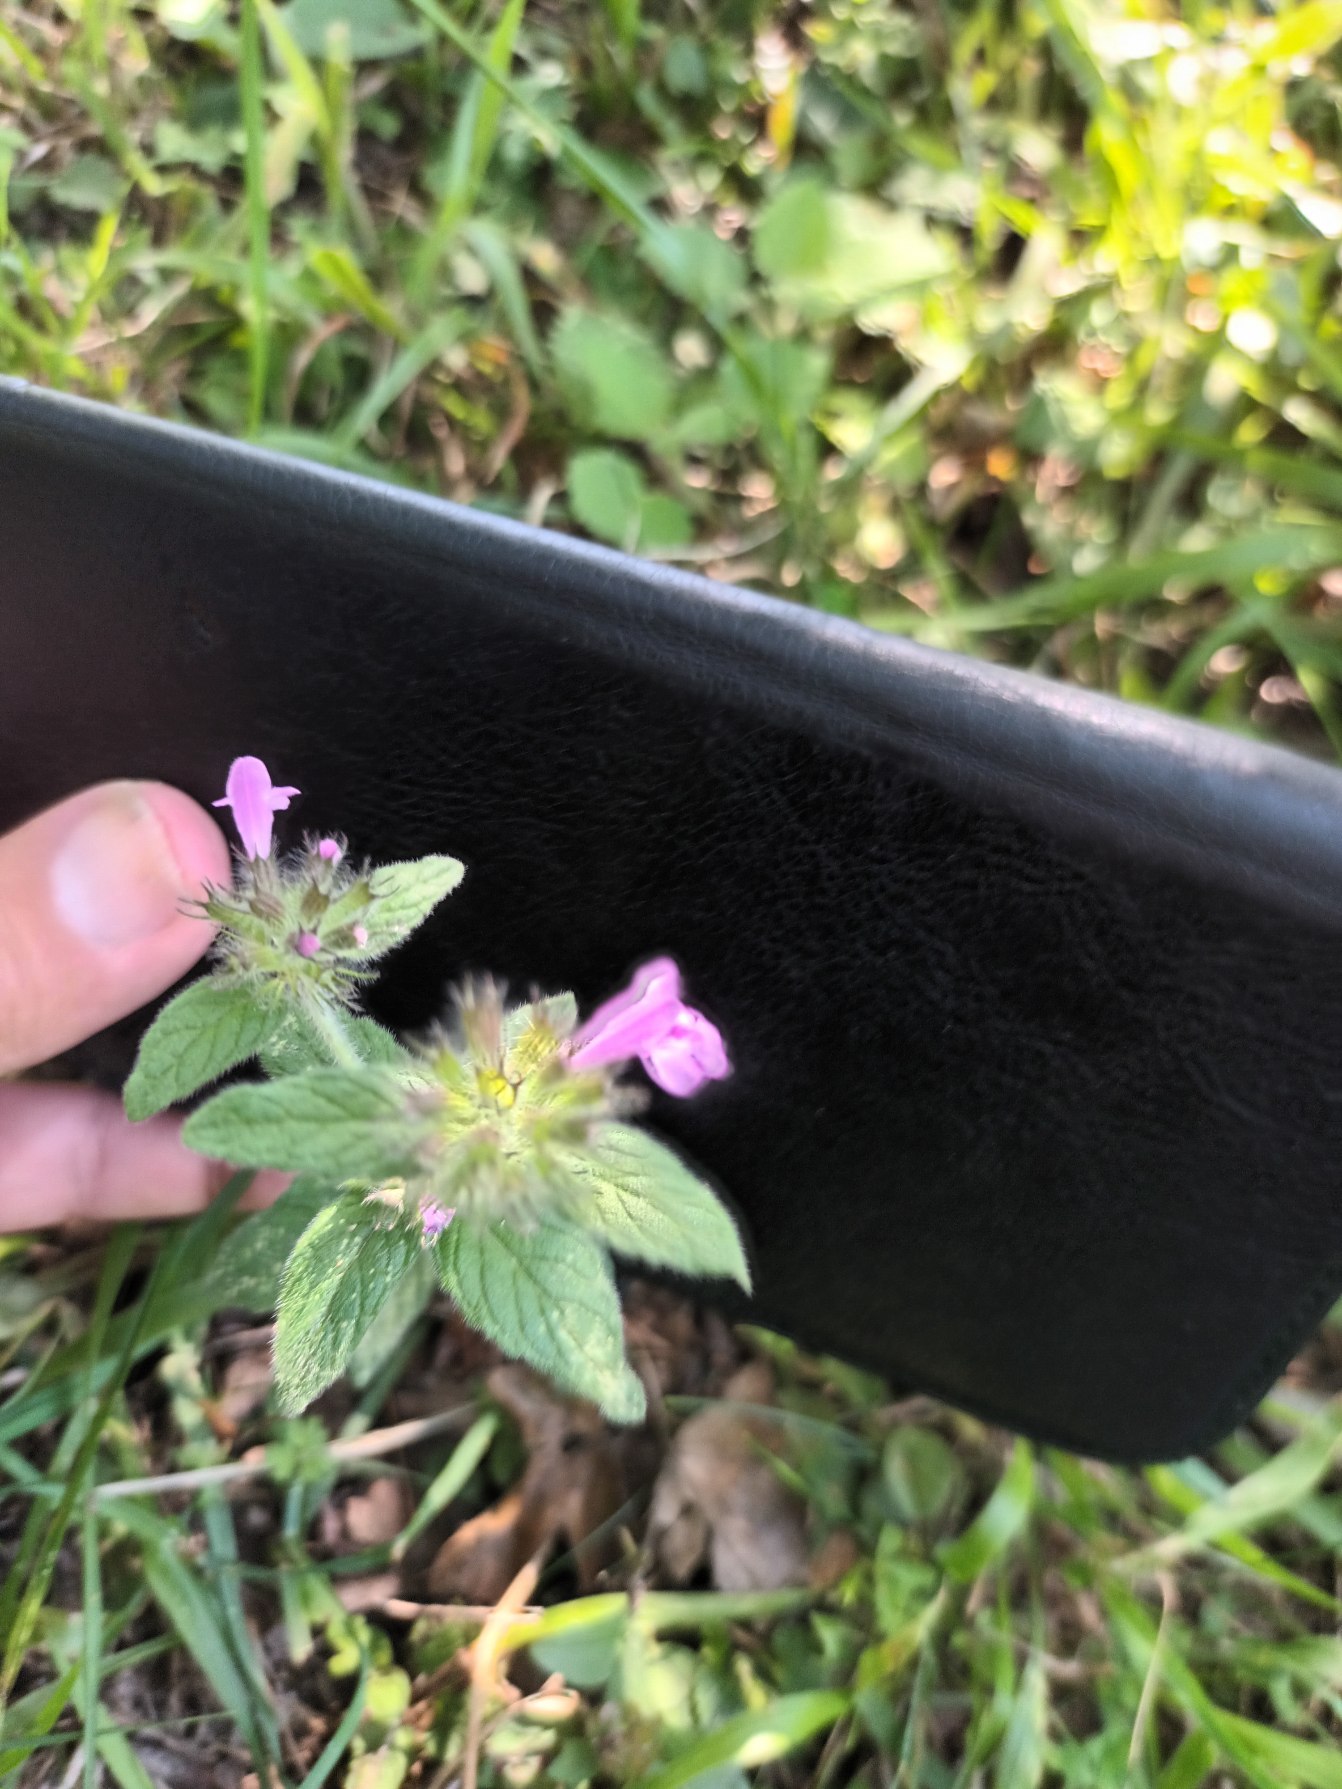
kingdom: Plantae
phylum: Tracheophyta
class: Magnoliopsida
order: Lamiales
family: Lamiaceae
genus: Clinopodium
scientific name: Clinopodium vulgare
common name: Kransbørste
